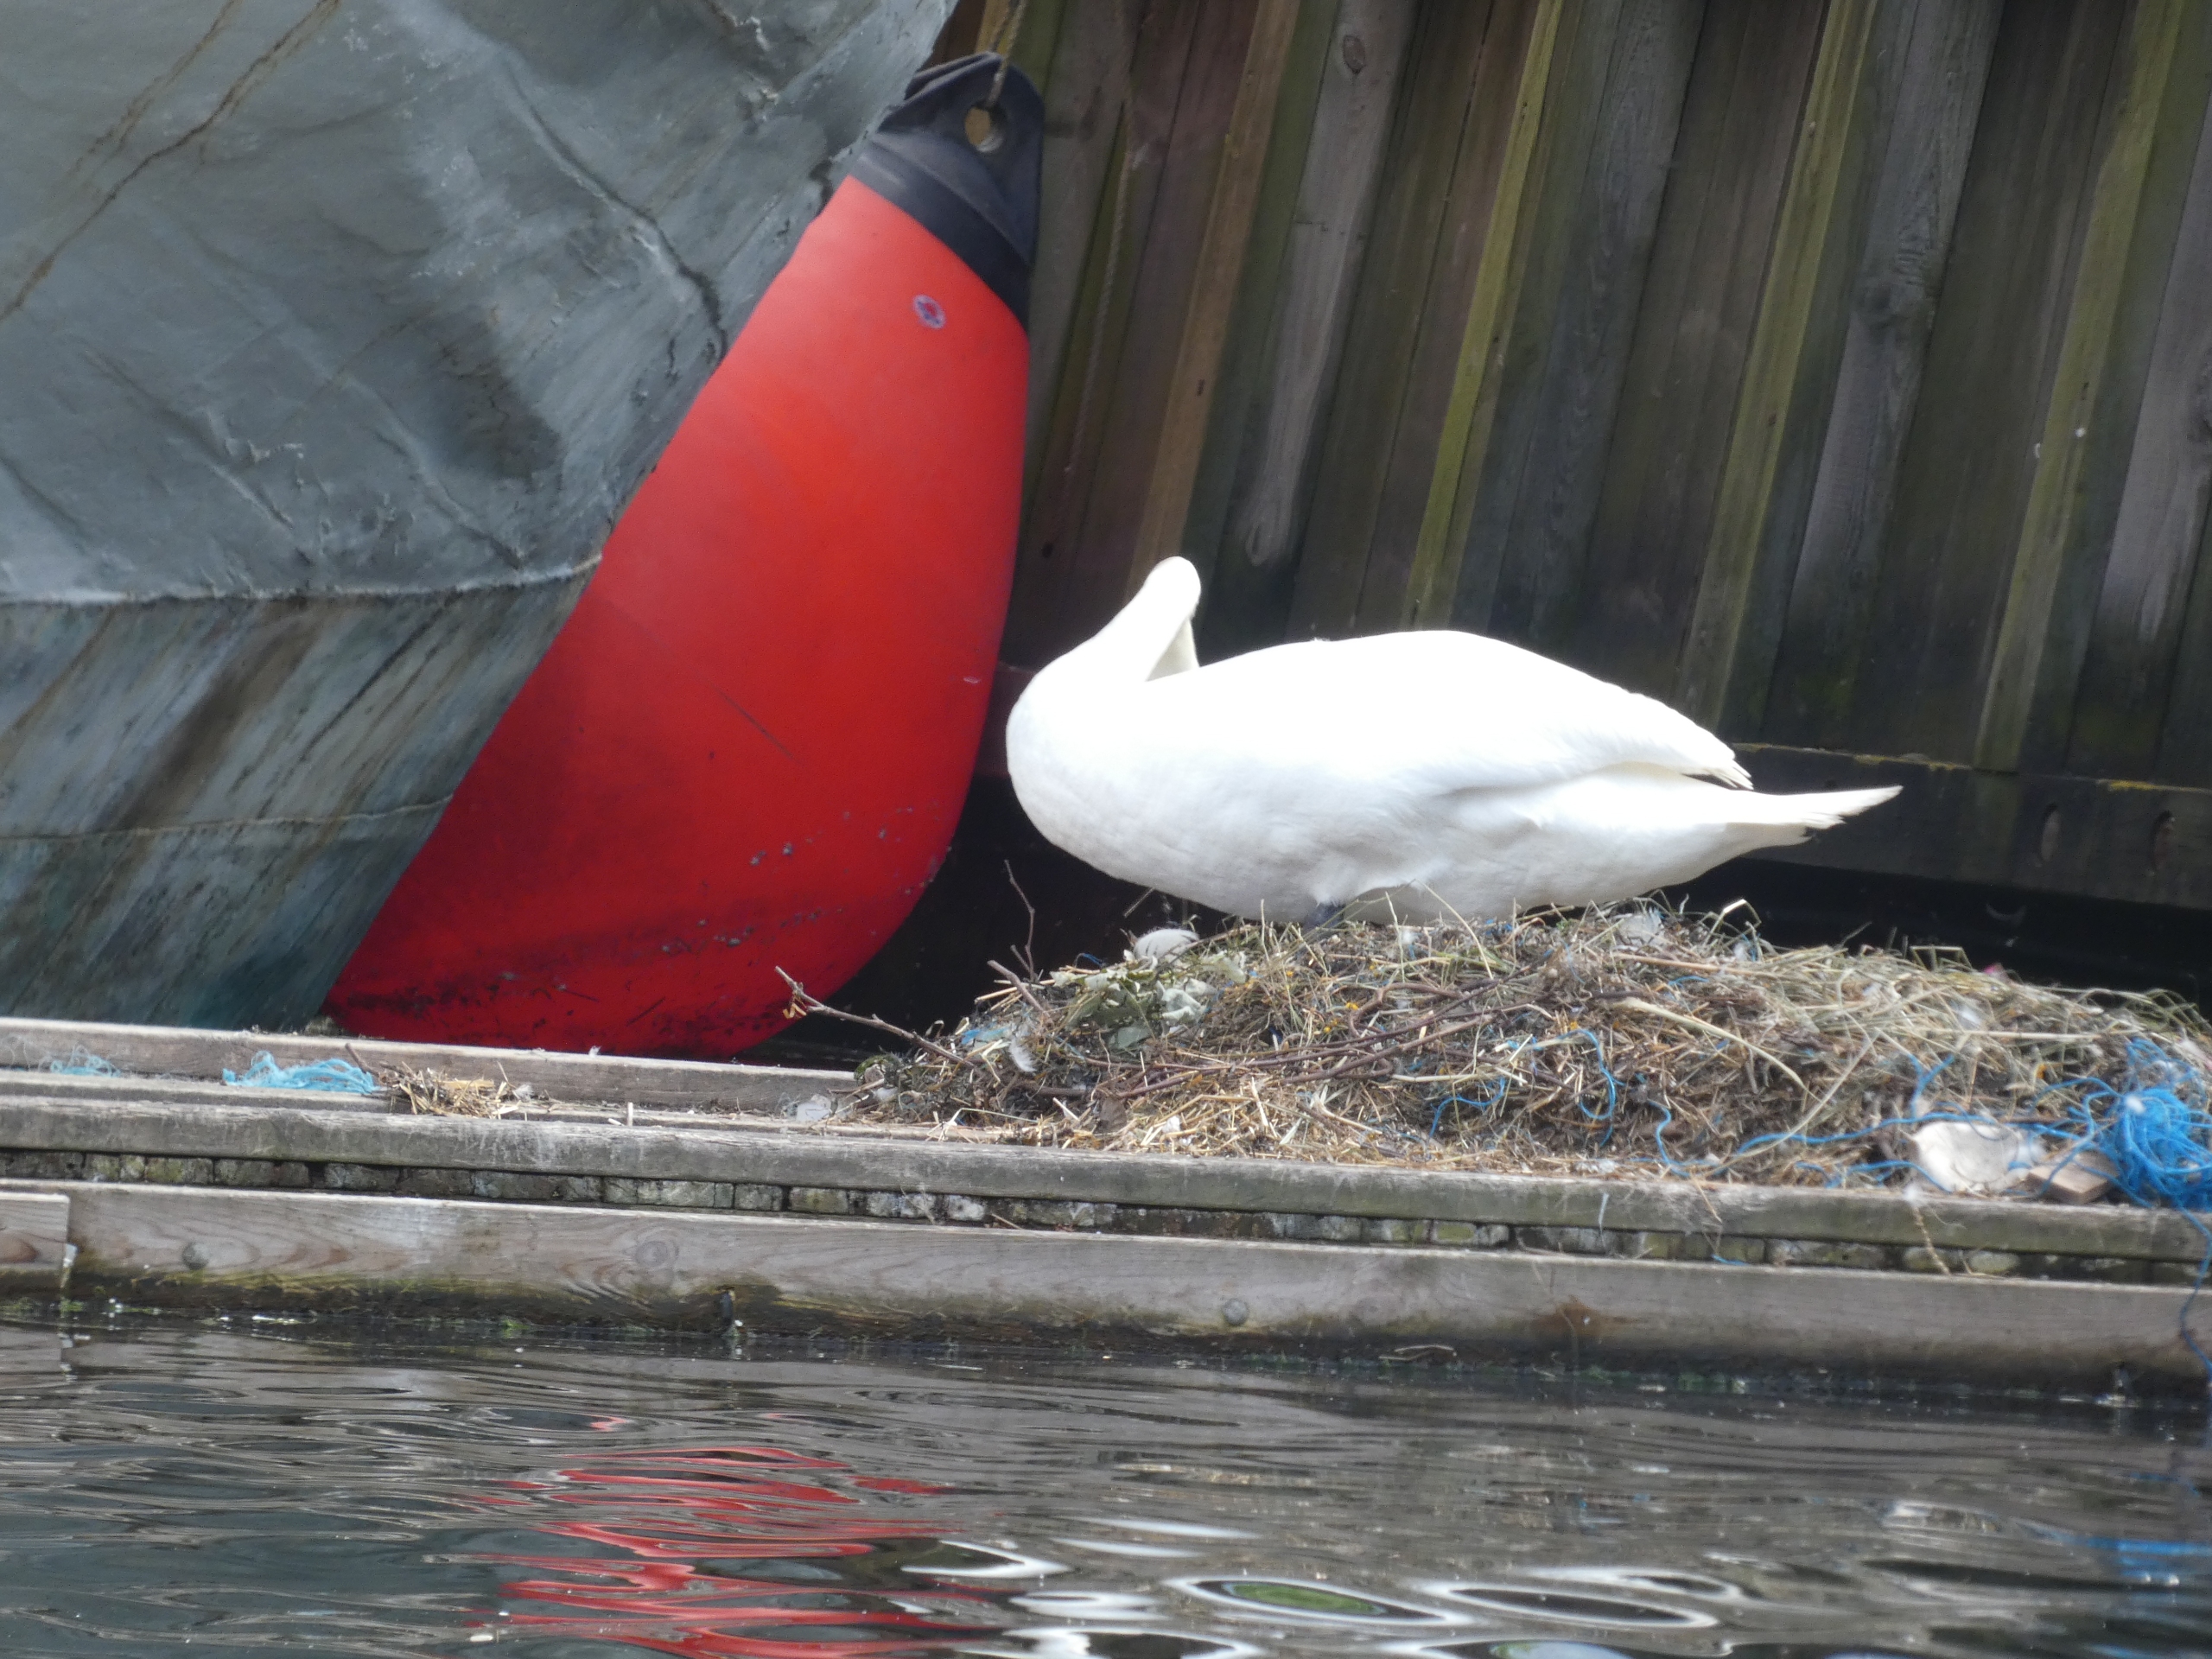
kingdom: Animalia
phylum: Chordata
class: Aves
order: Anseriformes
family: Anatidae
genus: Cygnus
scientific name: Cygnus olor
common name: Knopsvane
